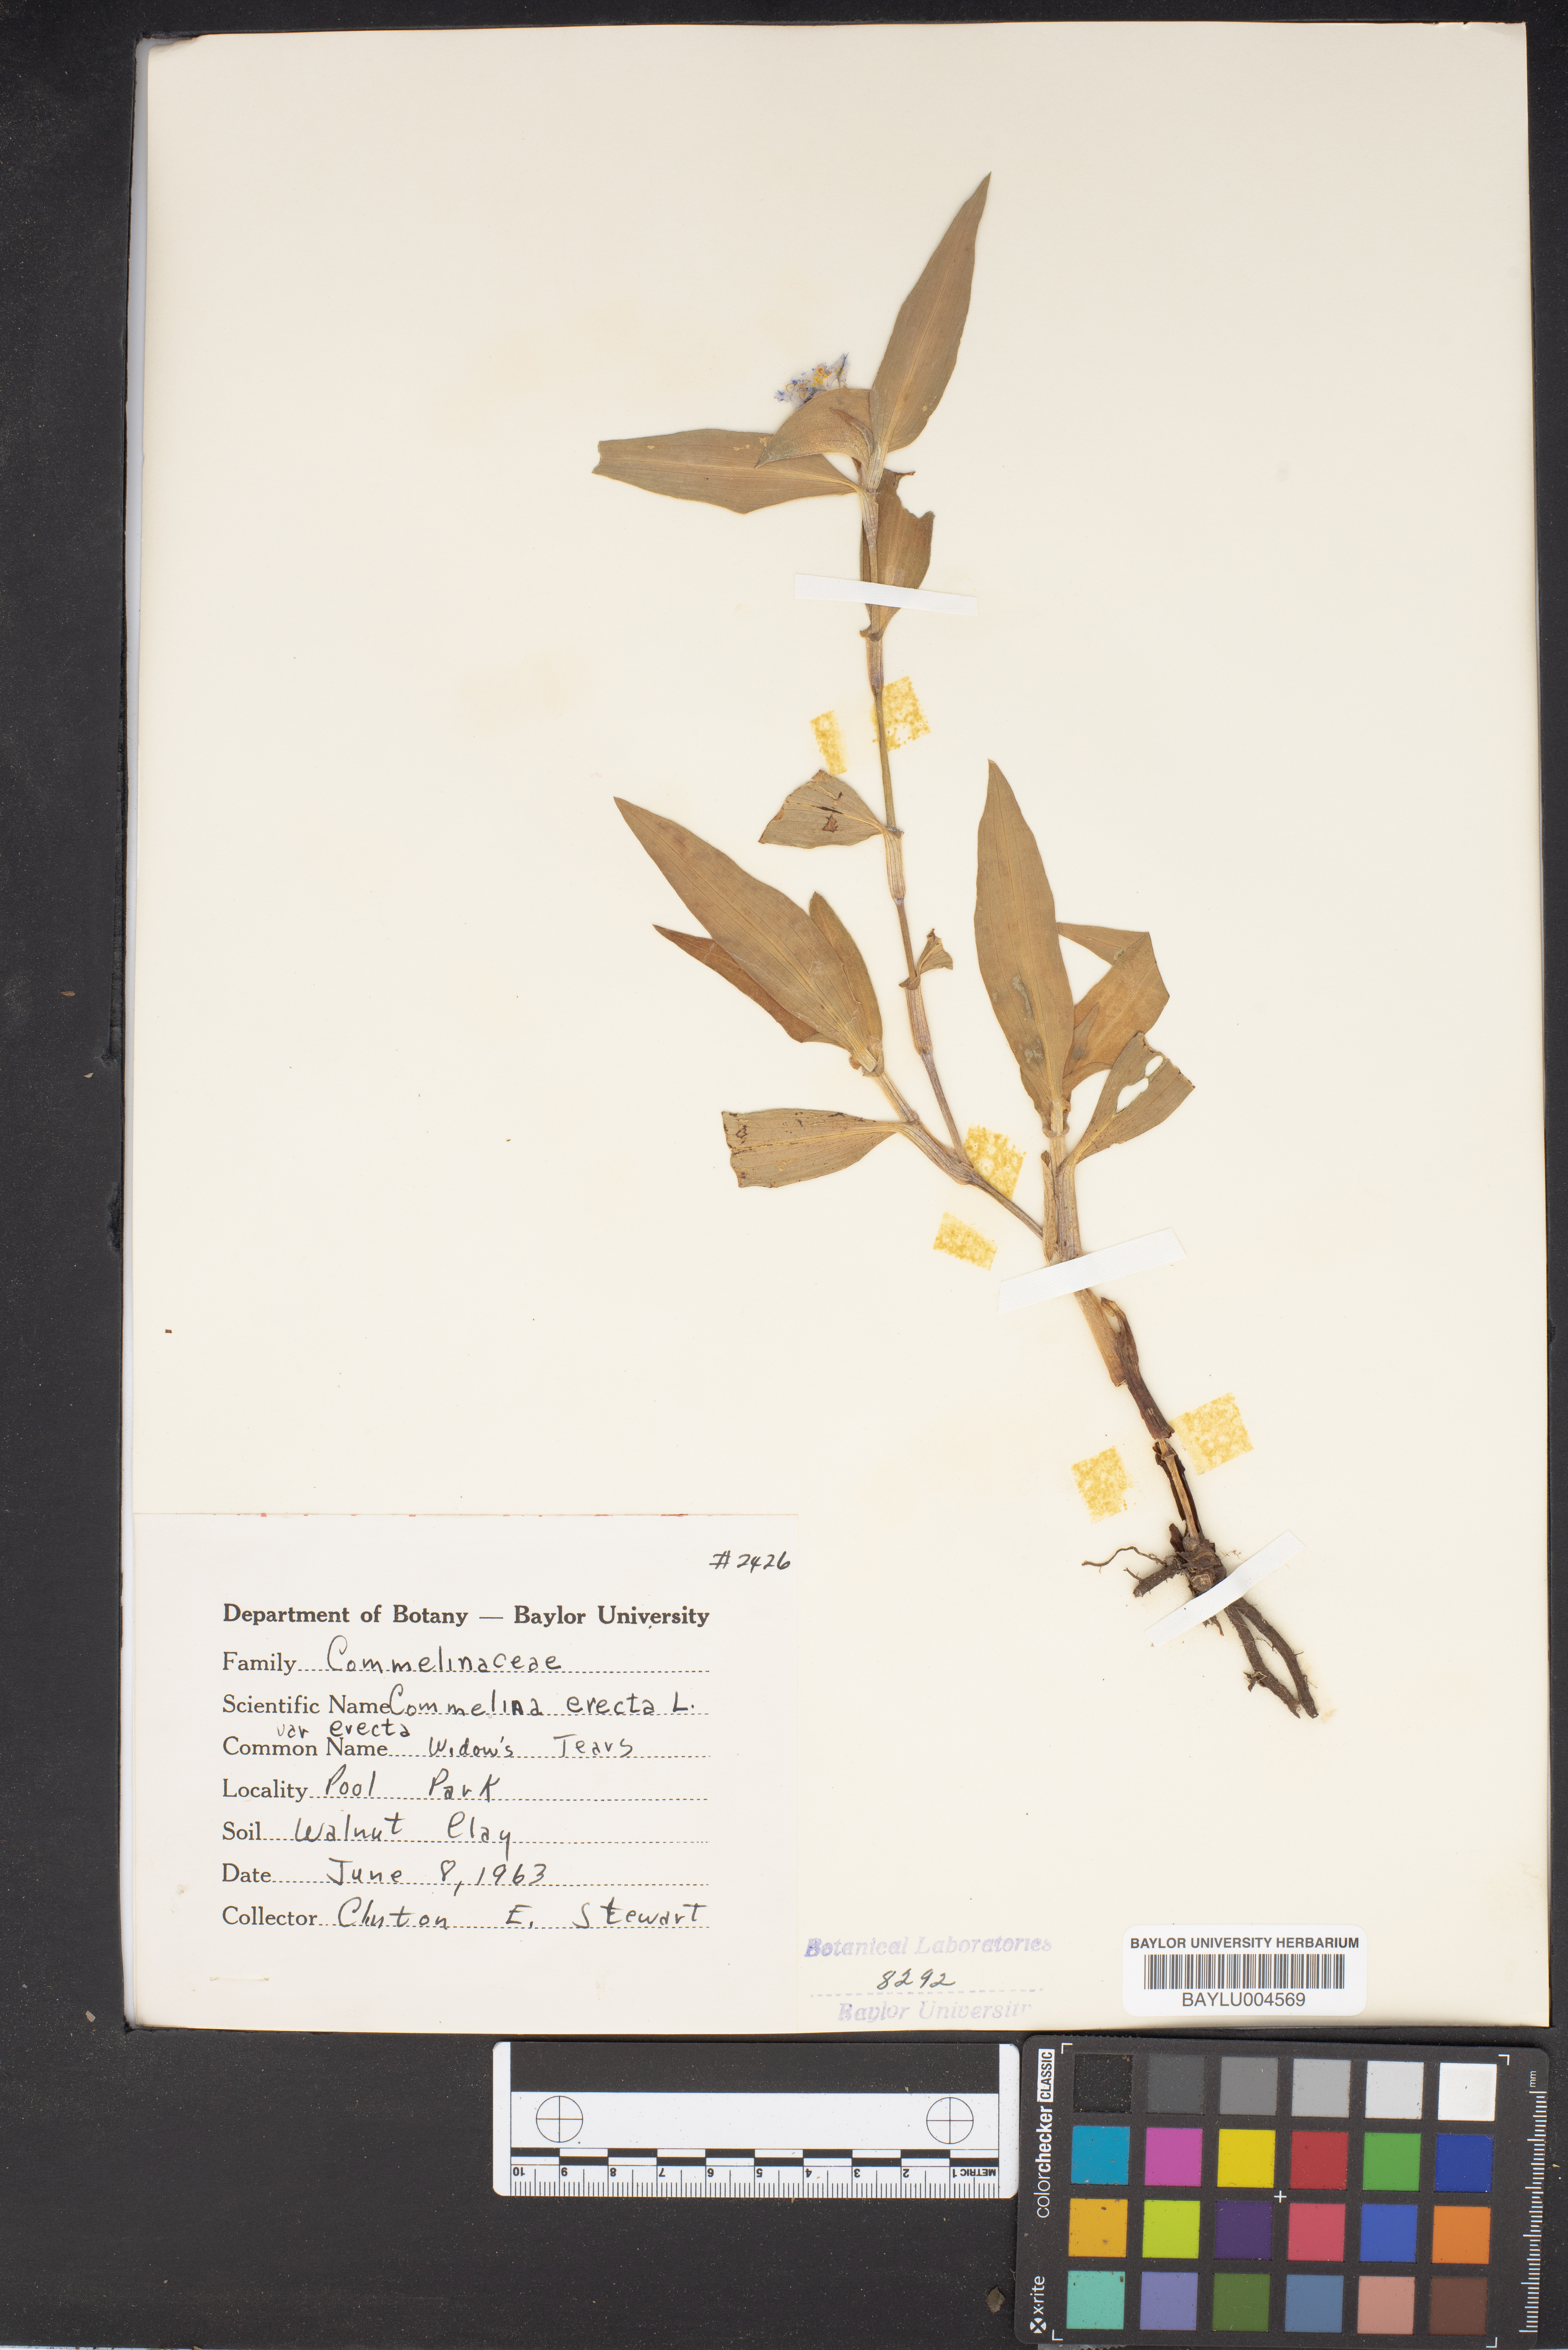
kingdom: Plantae
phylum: Tracheophyta
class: Liliopsida
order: Commelinales
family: Commelinaceae
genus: Commelina
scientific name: Commelina erecta
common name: Blousel blommetjie
